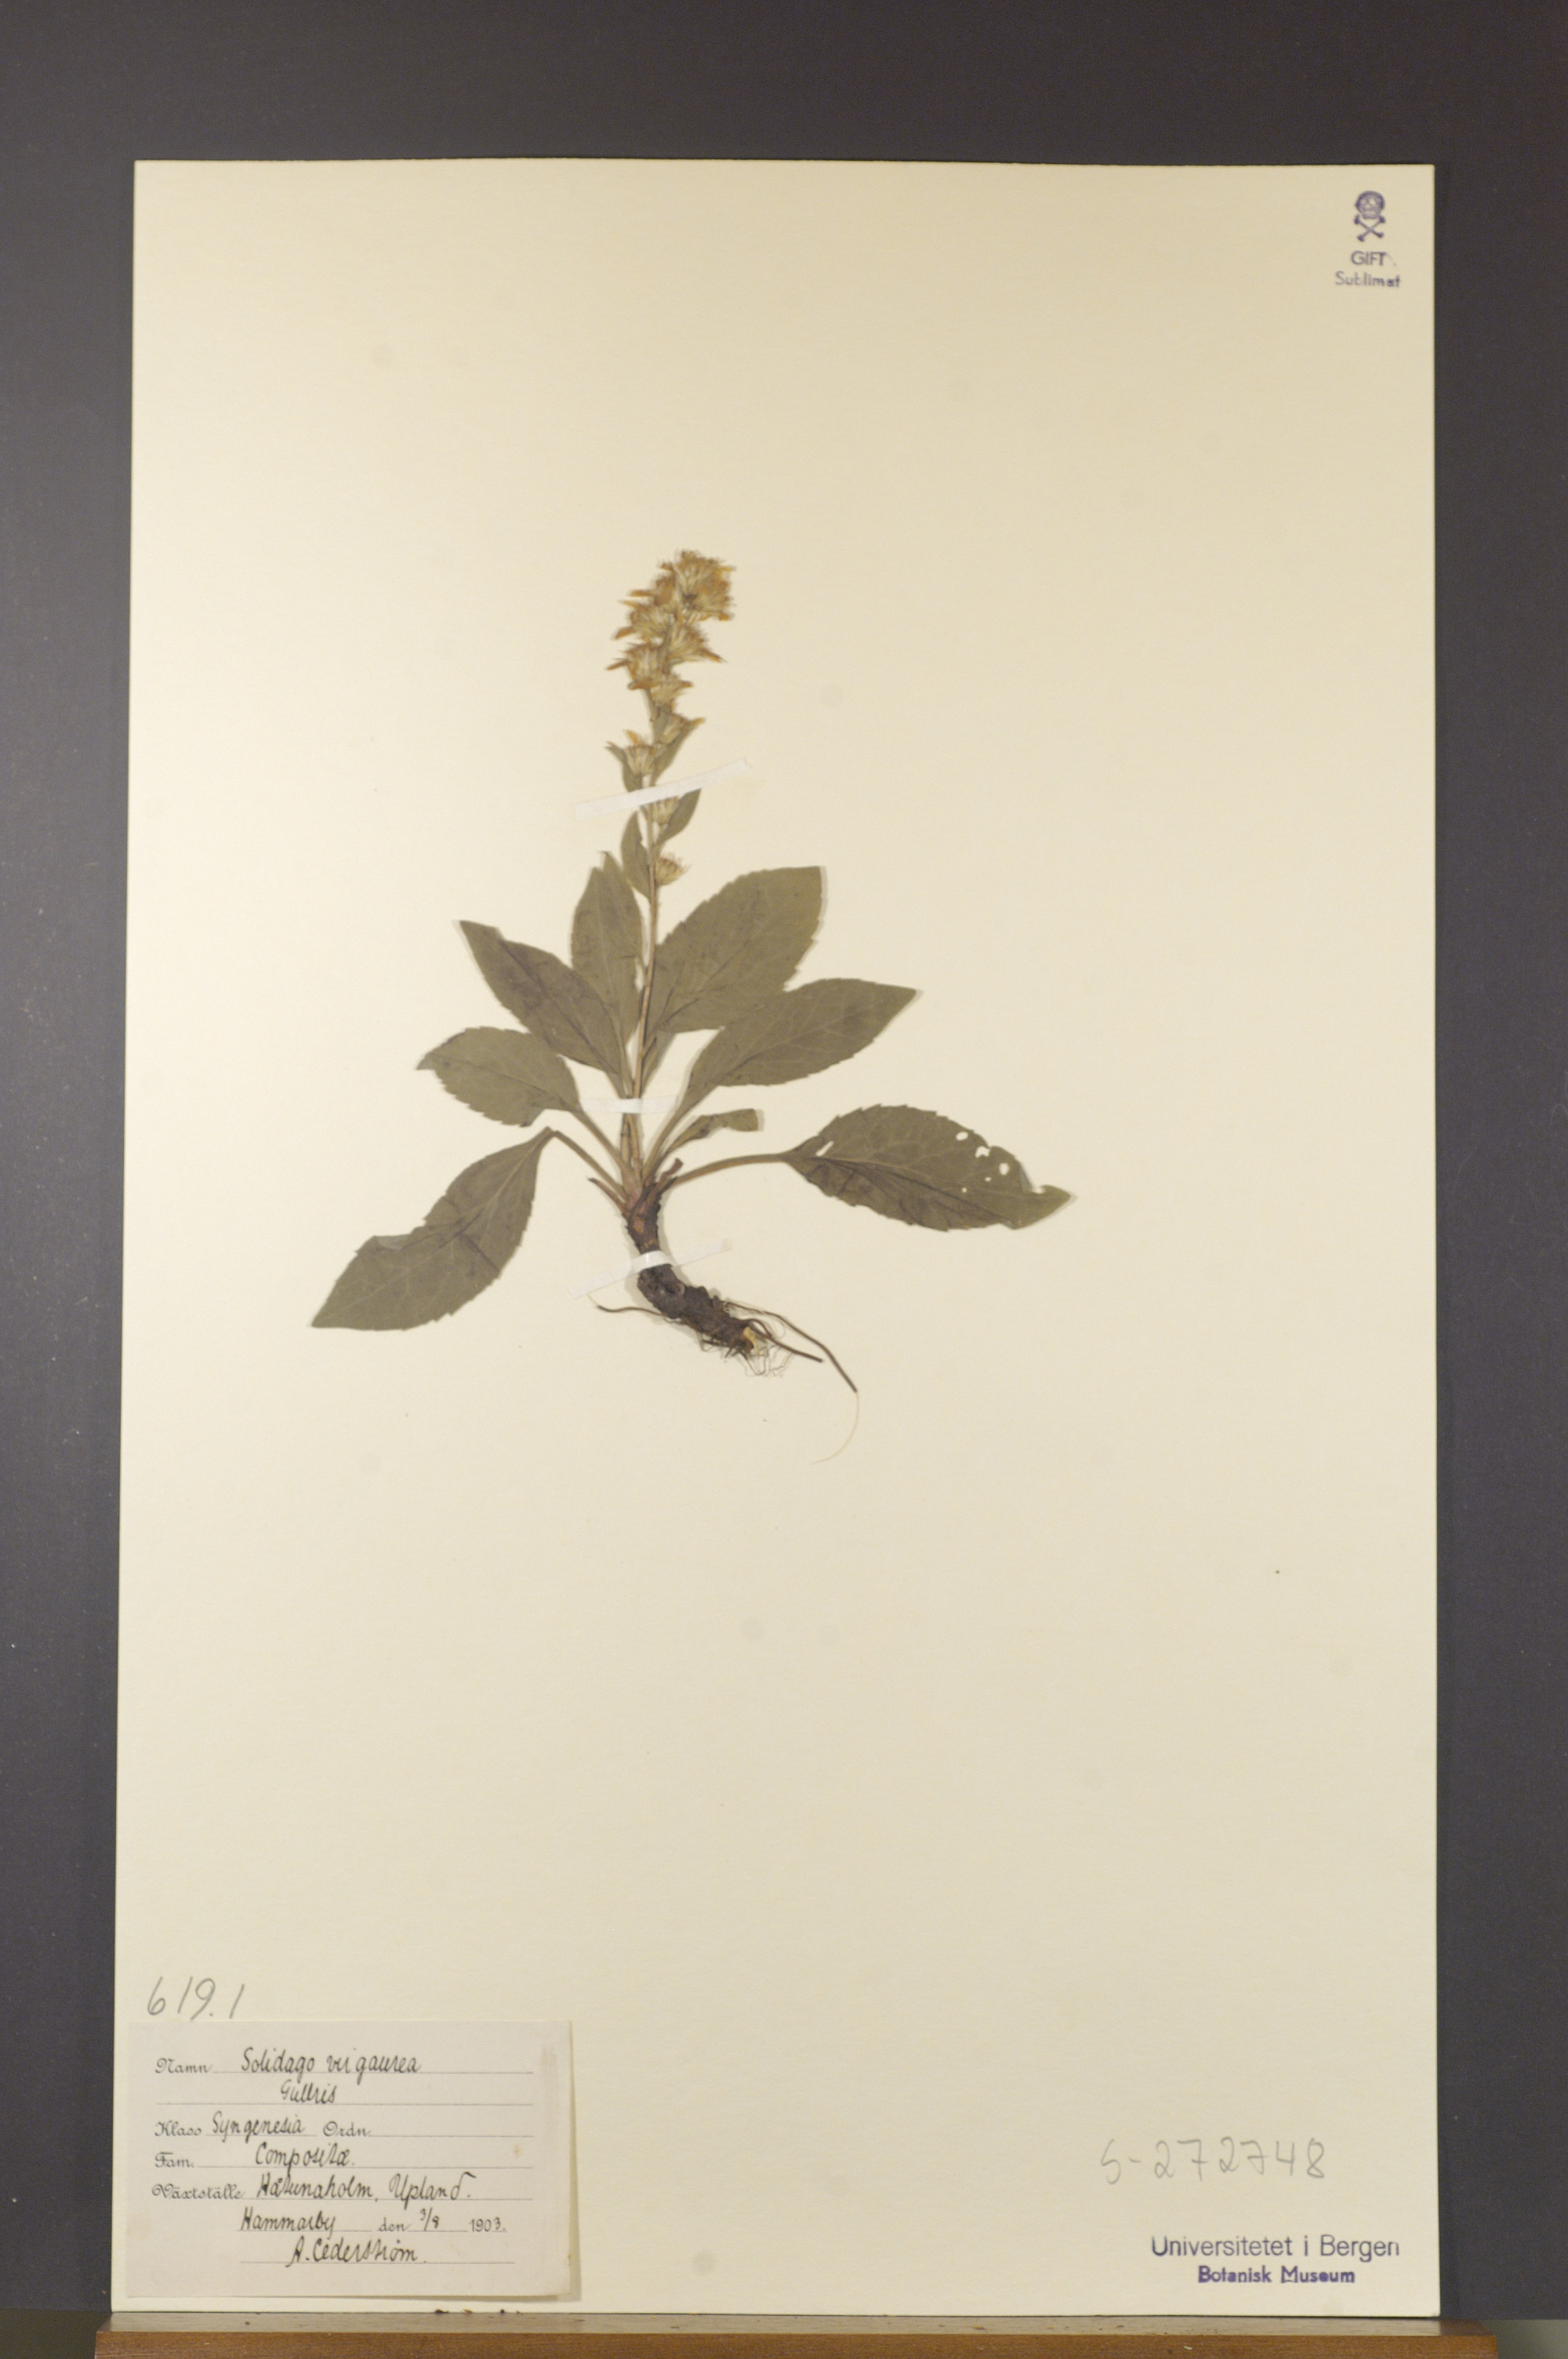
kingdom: Plantae
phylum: Tracheophyta
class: Magnoliopsida
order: Asterales
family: Asteraceae
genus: Solidago
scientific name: Solidago virgaurea
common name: Goldenrod
